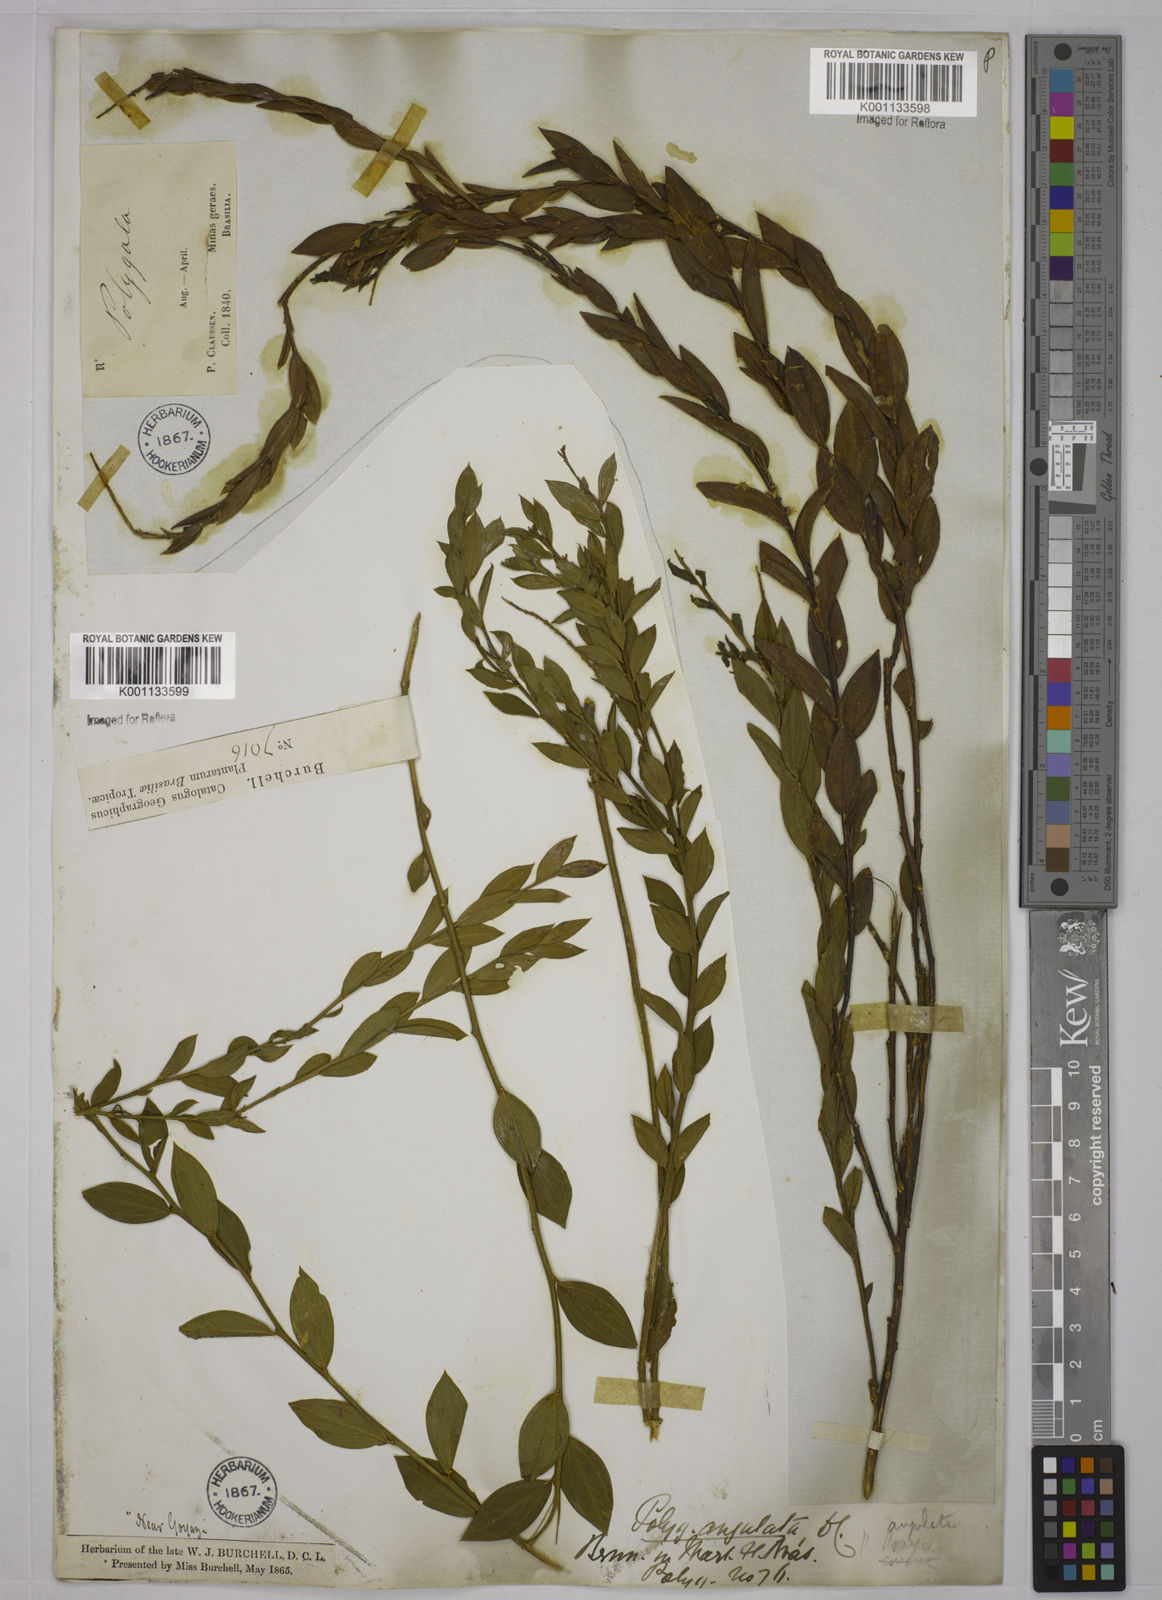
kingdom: Plantae
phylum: Tracheophyta
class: Magnoliopsida
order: Fabales
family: Polygalaceae
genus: Polygala
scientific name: Polygala poaya
